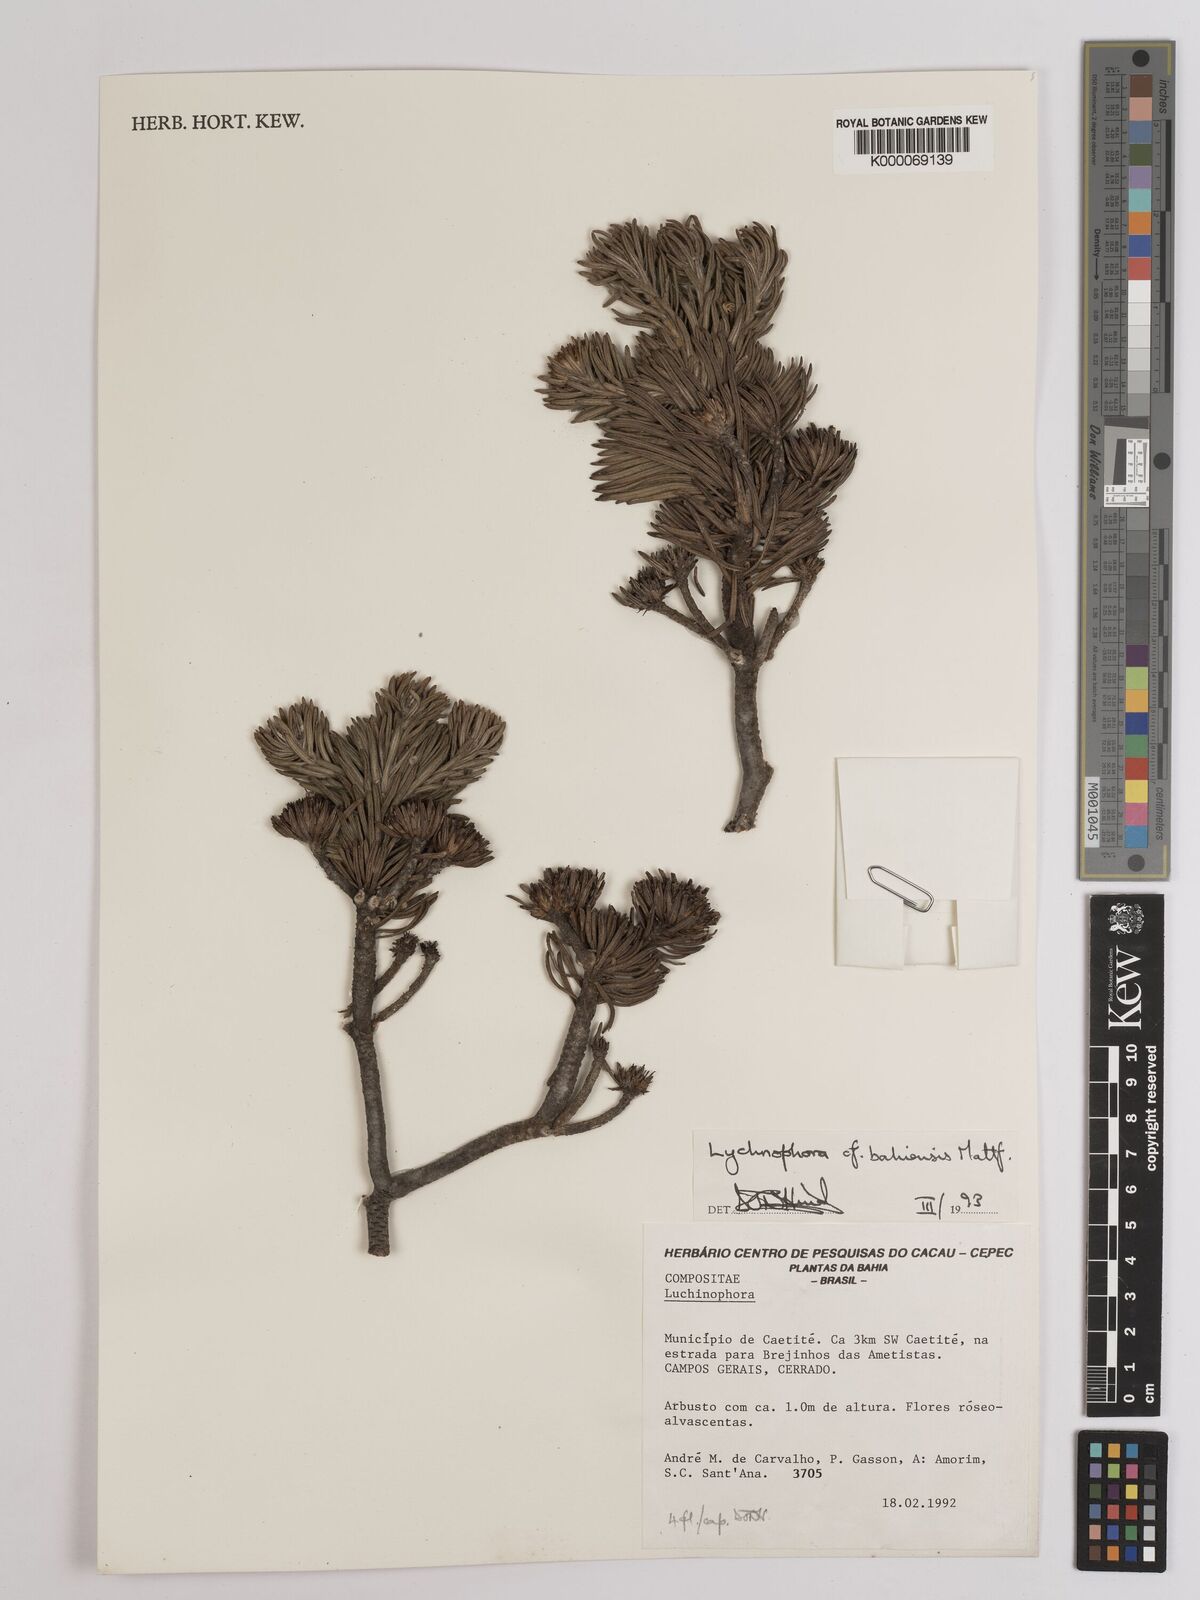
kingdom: Plantae
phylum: Tracheophyta
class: Magnoliopsida
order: Asterales
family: Asteraceae
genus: Lychnophora
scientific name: Lychnophora uniflora
